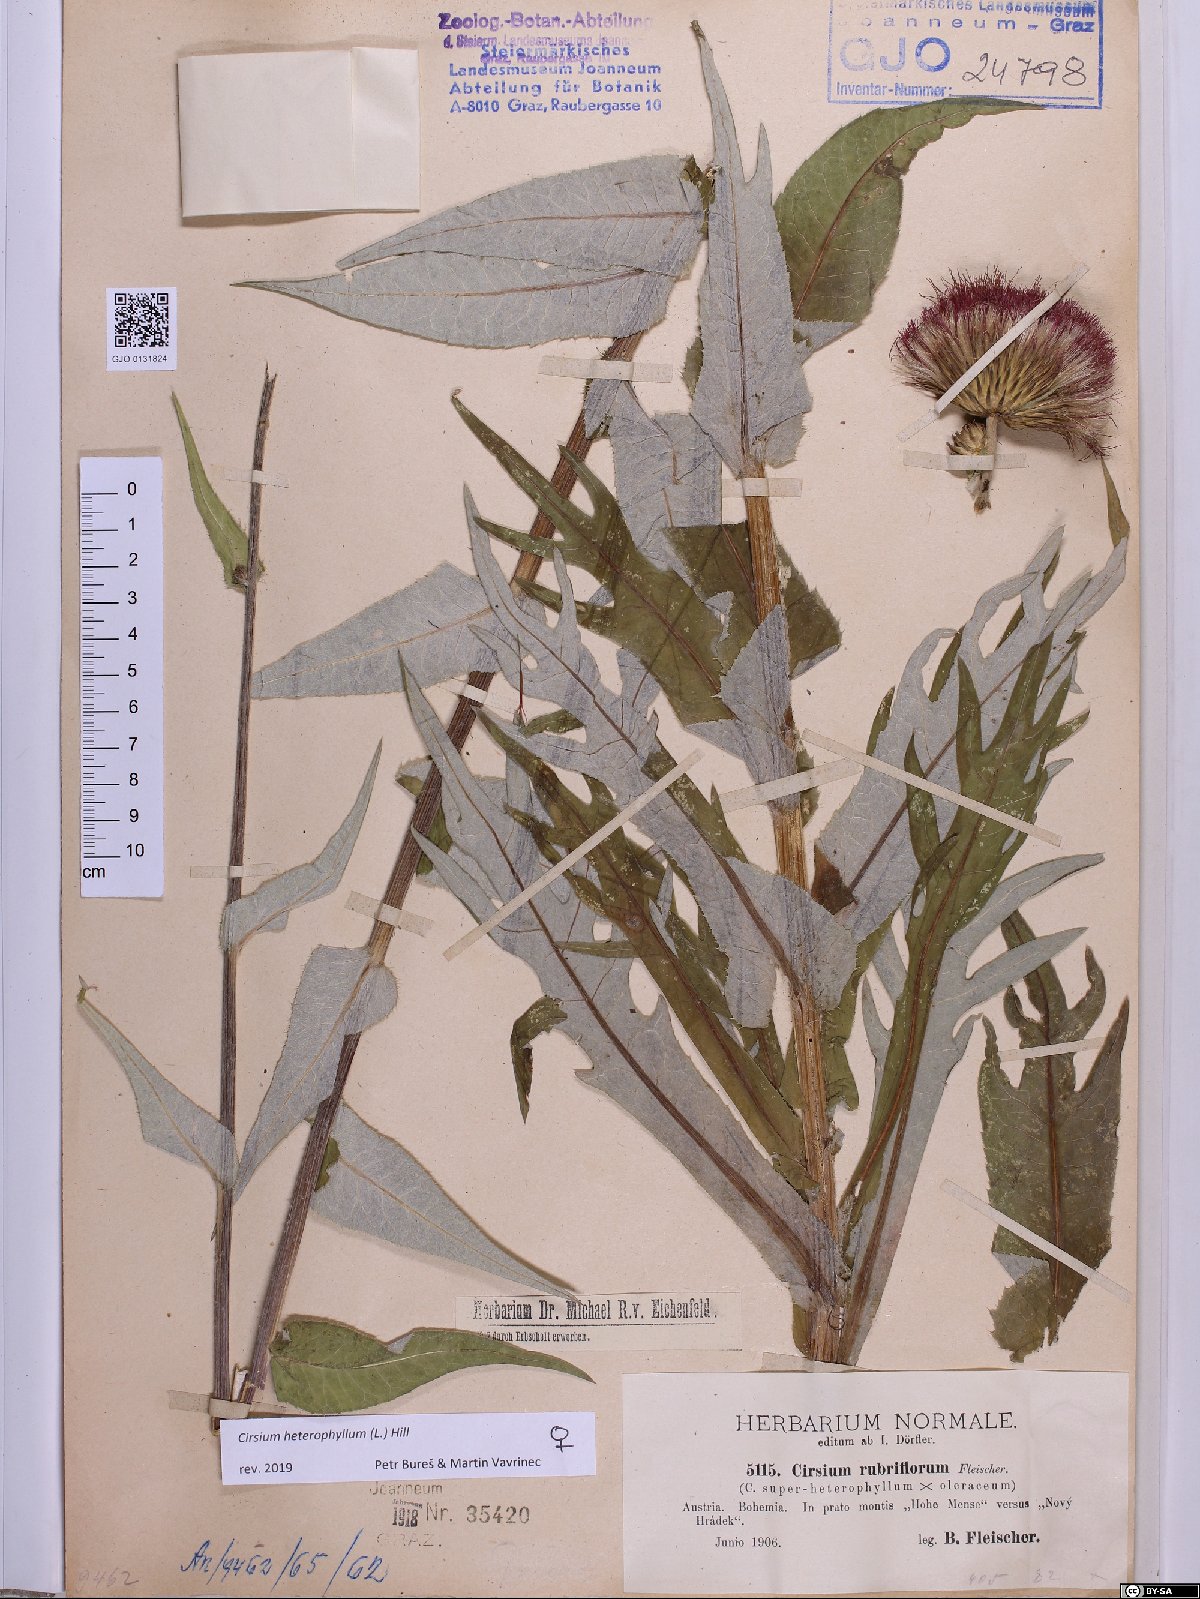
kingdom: Plantae
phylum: Tracheophyta
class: Magnoliopsida
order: Asterales
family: Asteraceae
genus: Cirsium
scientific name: Cirsium heterophyllum
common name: Melancholy thistle
